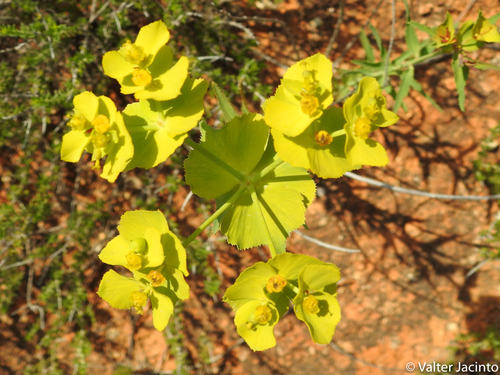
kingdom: Plantae
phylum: Tracheophyta
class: Magnoliopsida
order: Malpighiales
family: Euphorbiaceae
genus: Euphorbia
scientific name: Euphorbia serrata
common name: Serrate spurge
